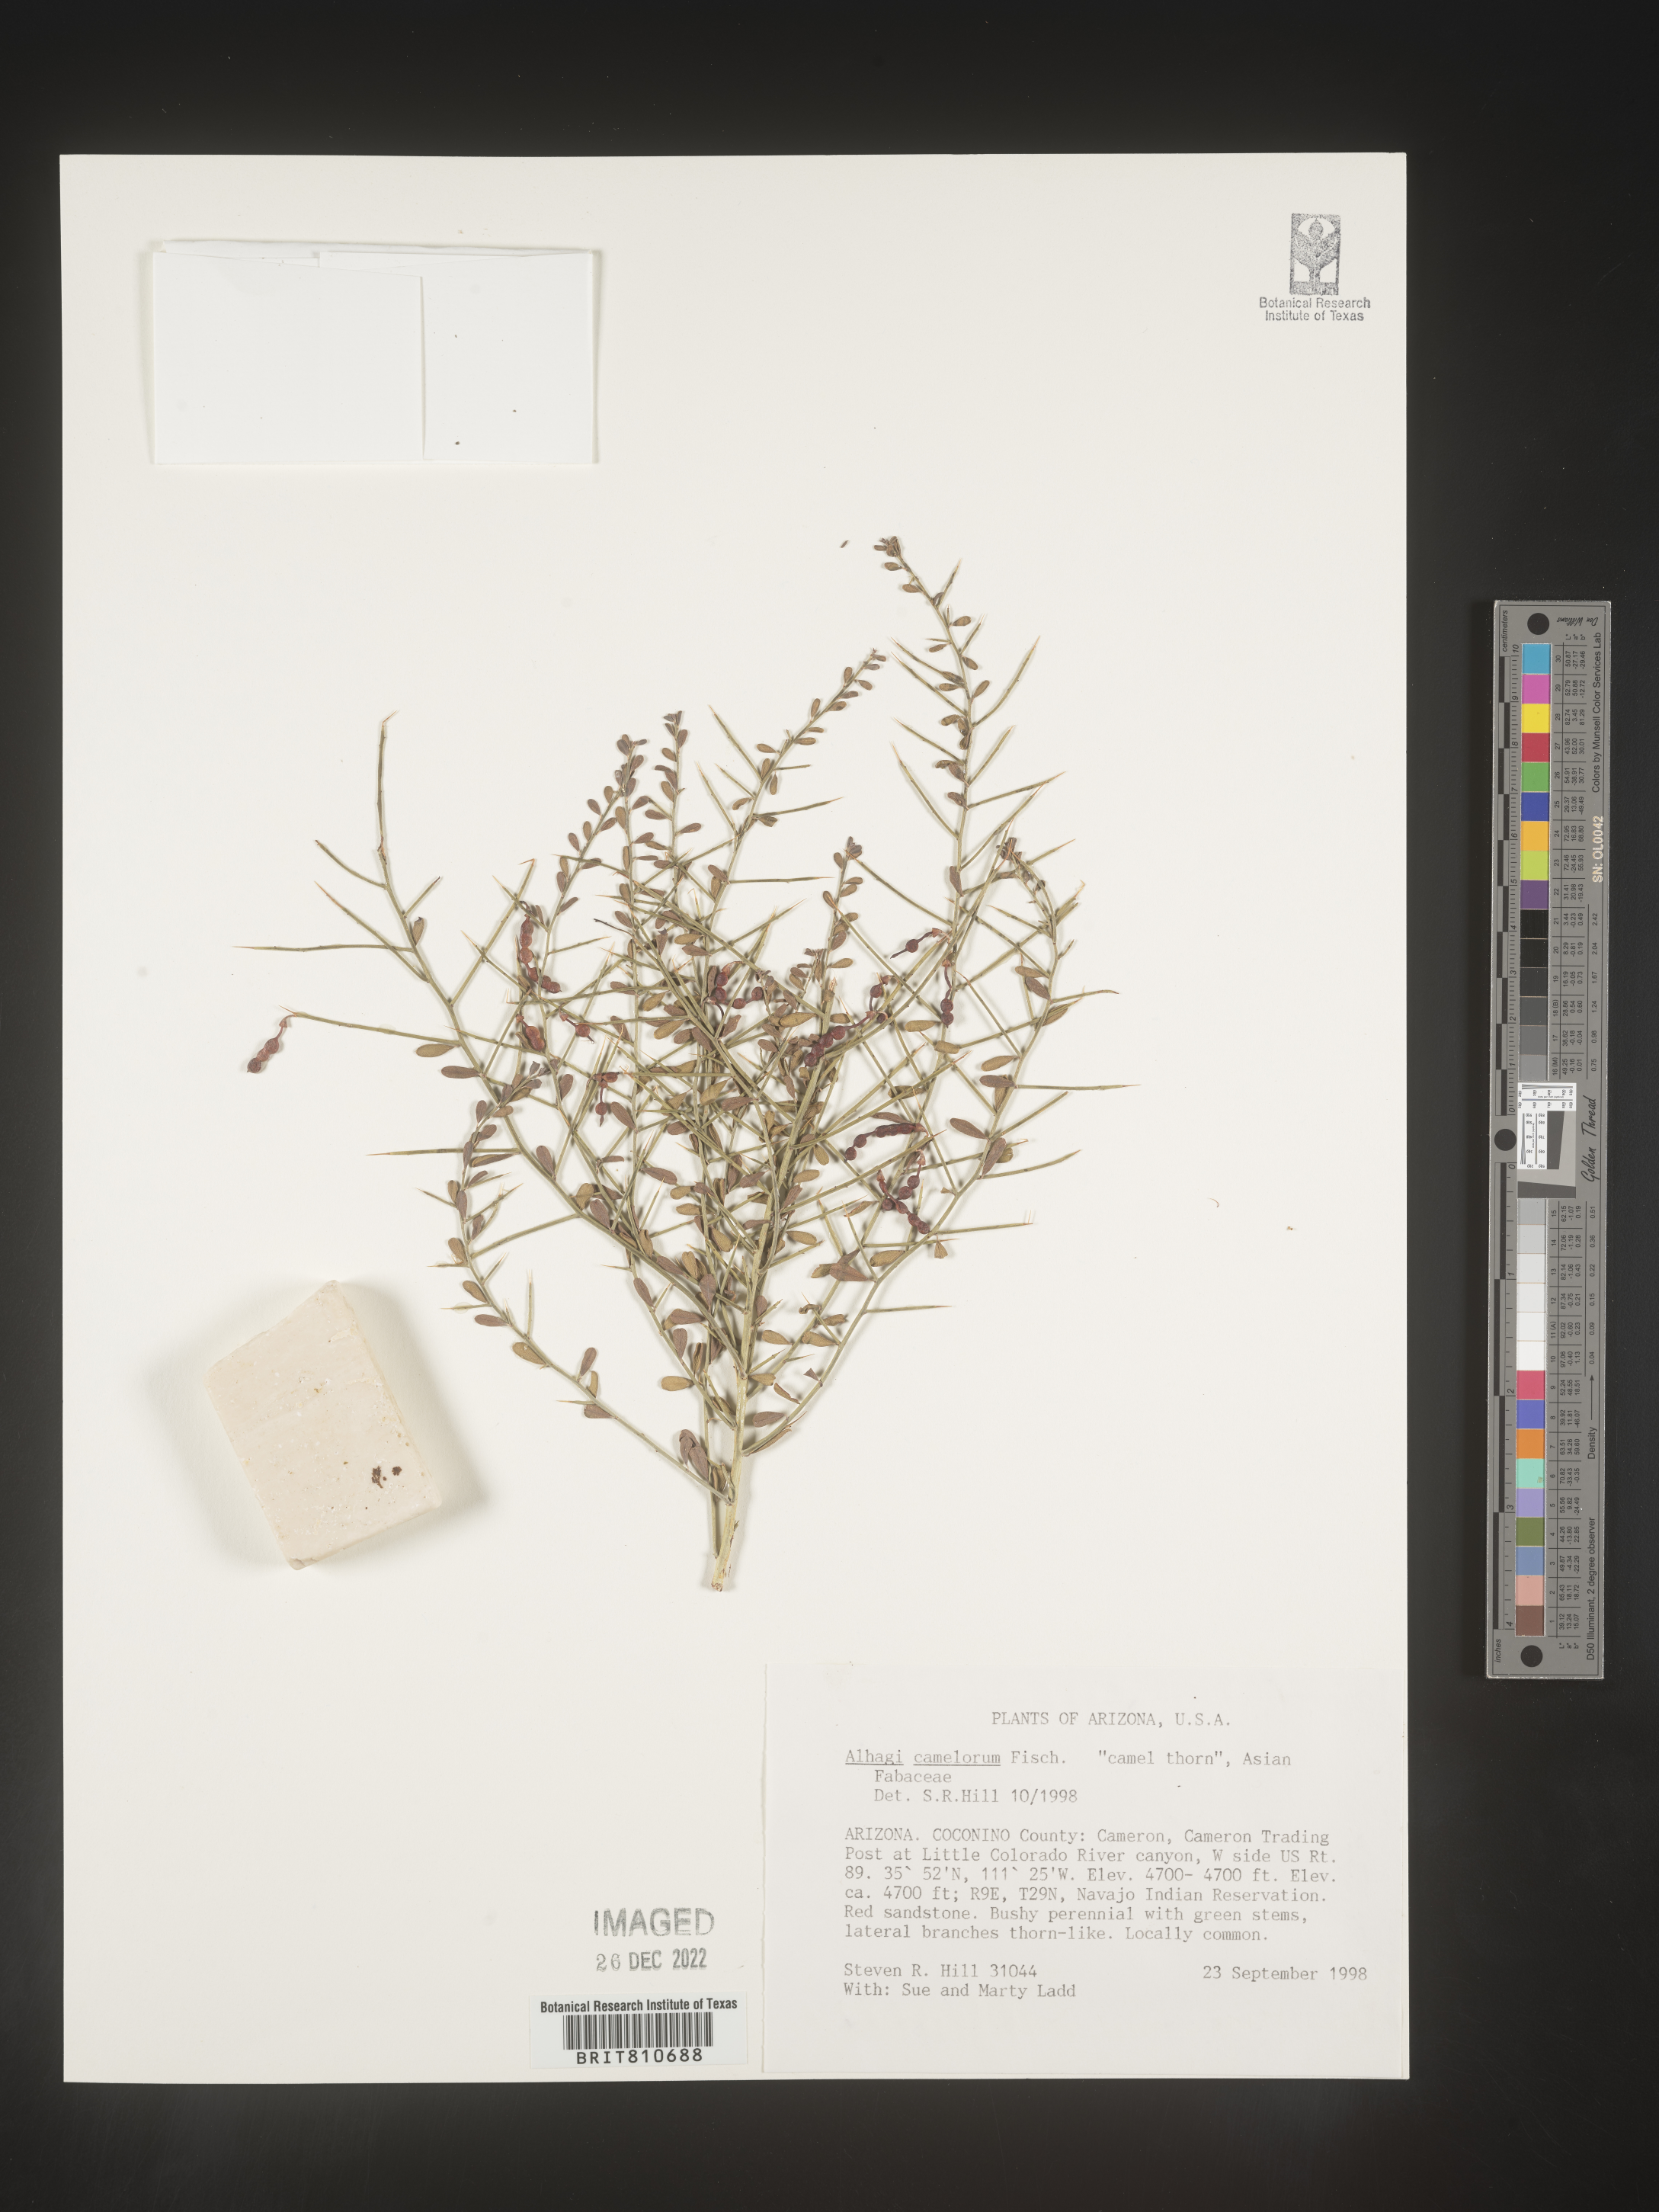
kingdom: Plantae
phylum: Tracheophyta
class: Magnoliopsida
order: Fabales
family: Fabaceae
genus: Alhagi
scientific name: Alhagi
